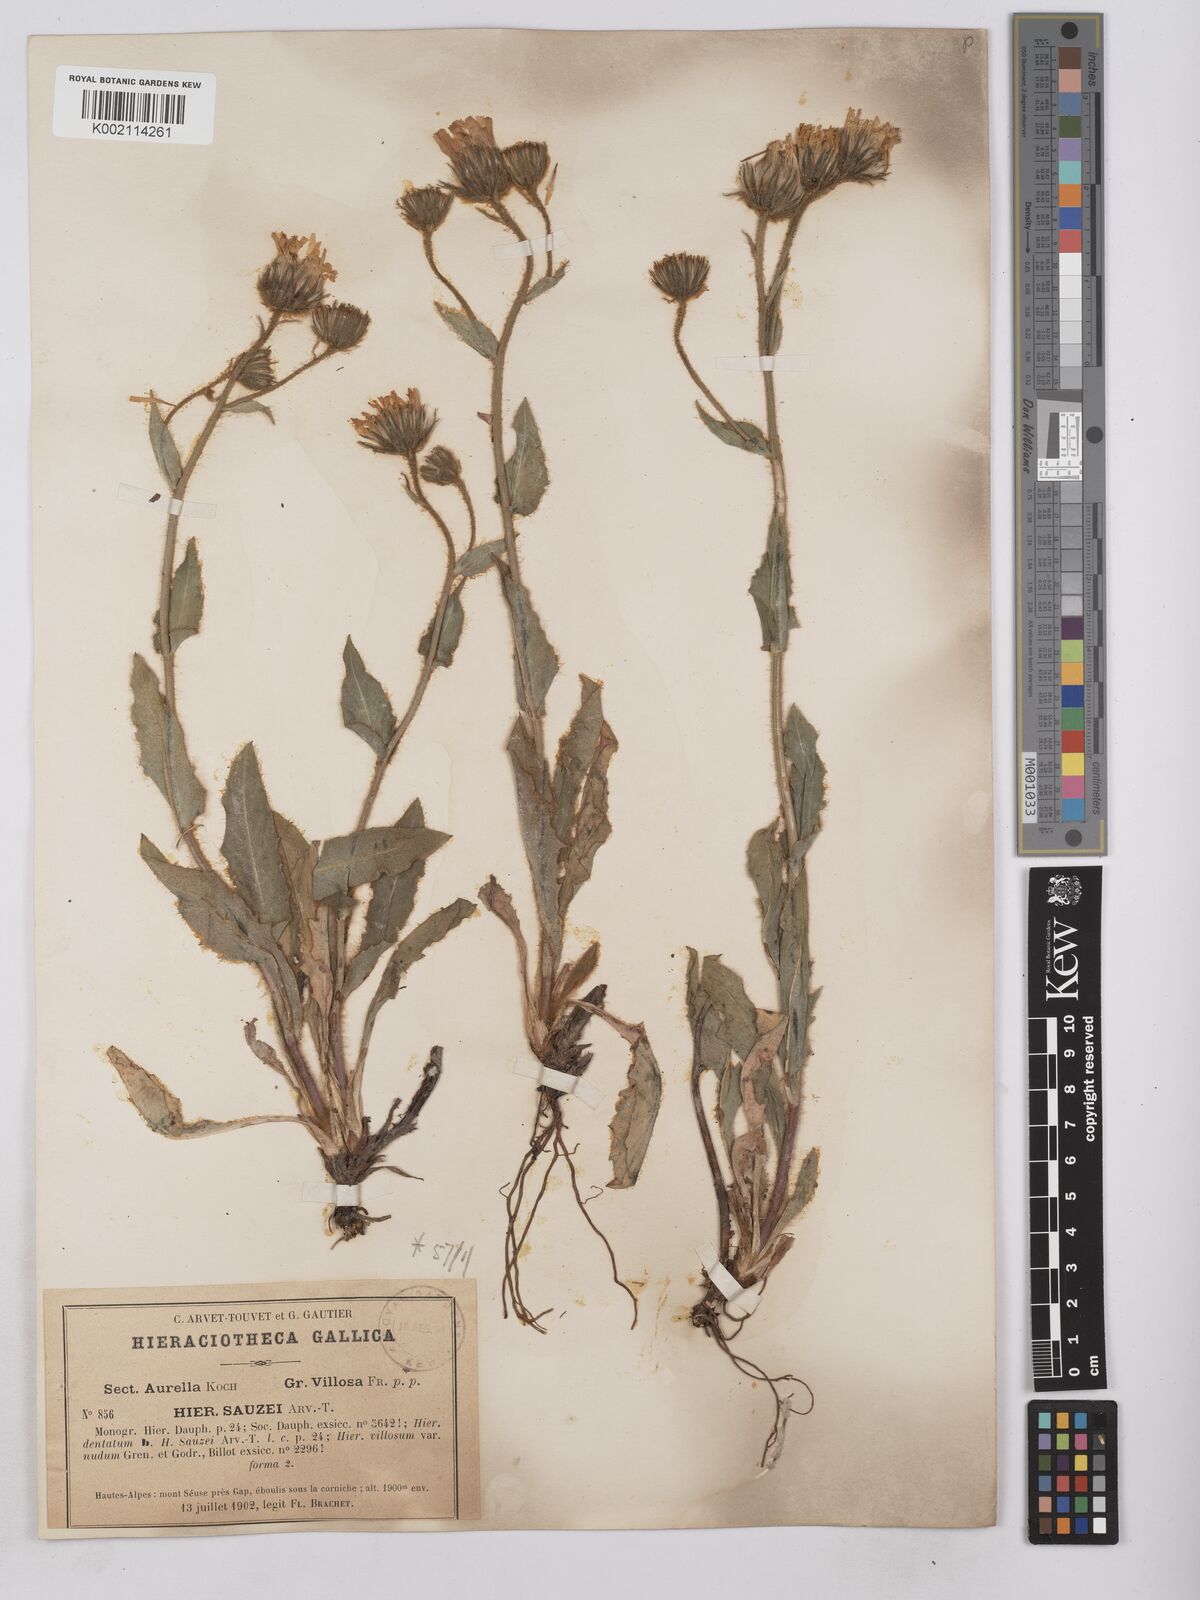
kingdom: Plantae
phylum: Tracheophyta
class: Magnoliopsida
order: Asterales
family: Asteraceae
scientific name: Asteraceae
